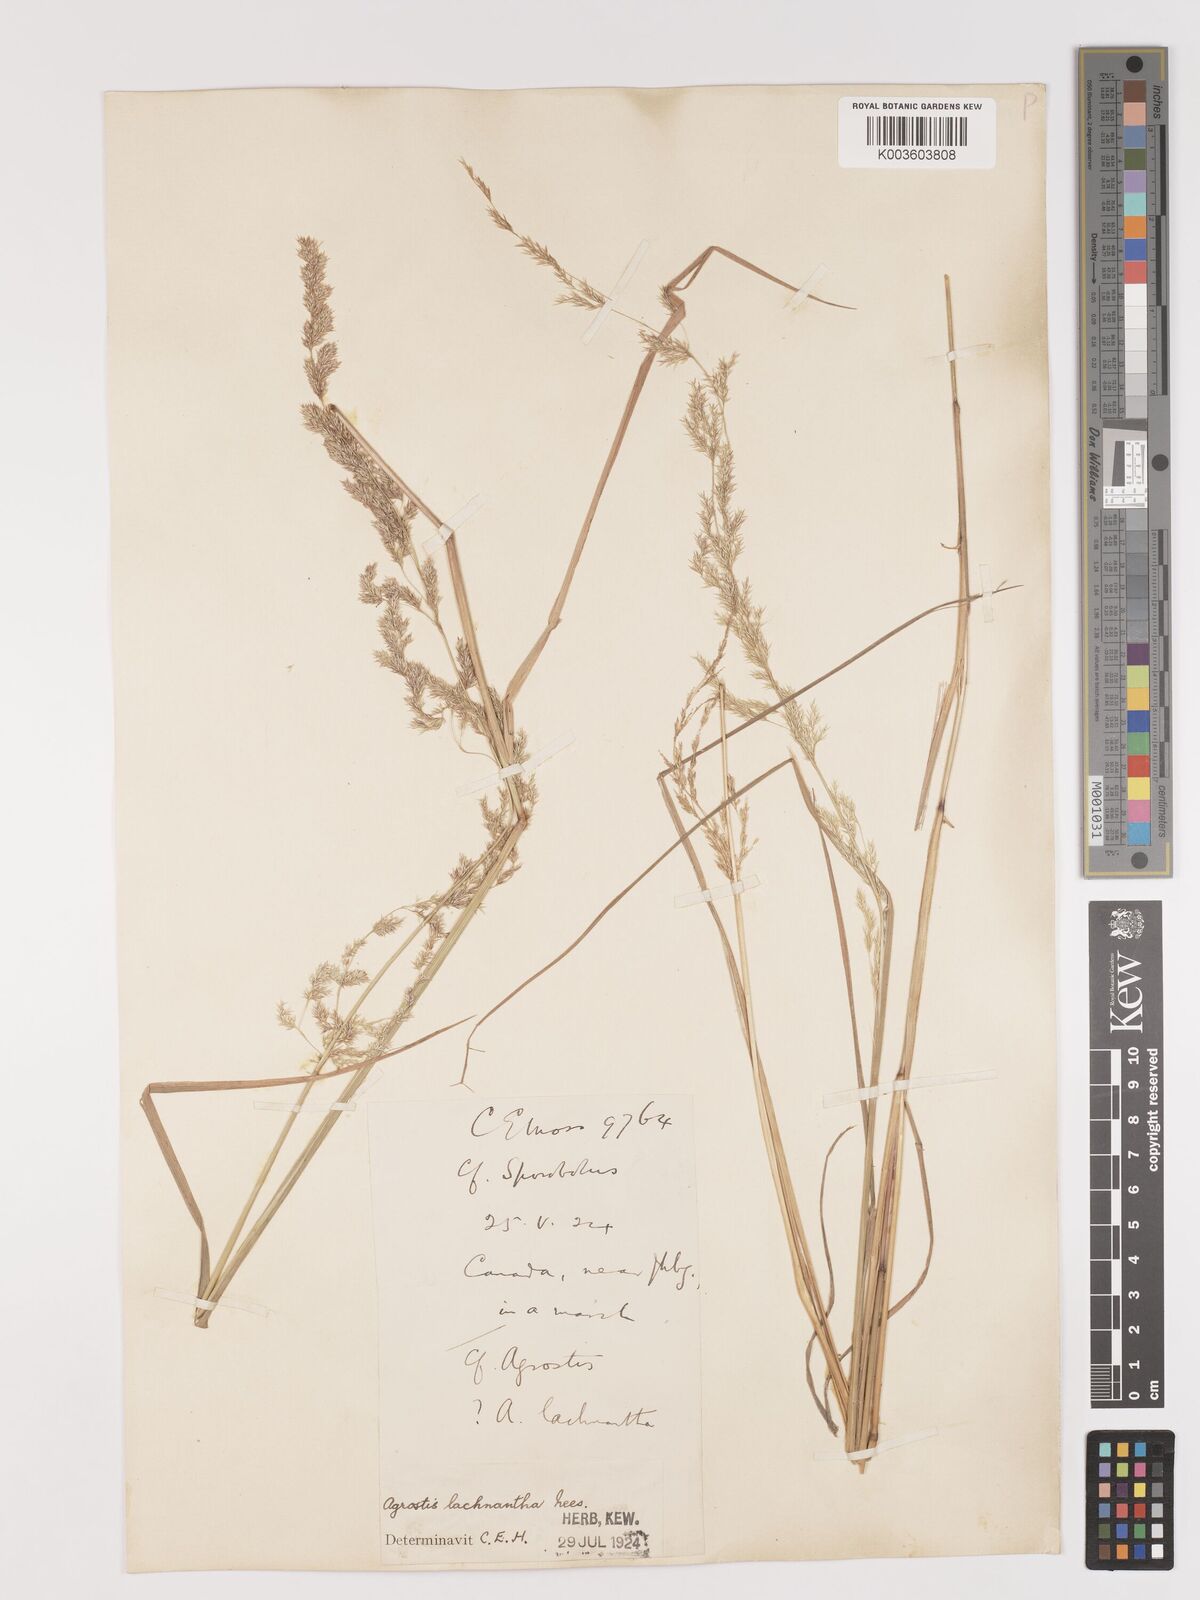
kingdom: Plantae
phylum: Tracheophyta
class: Liliopsida
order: Poales
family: Poaceae
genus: Lachnagrostis
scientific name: Lachnagrostis lachnantha
